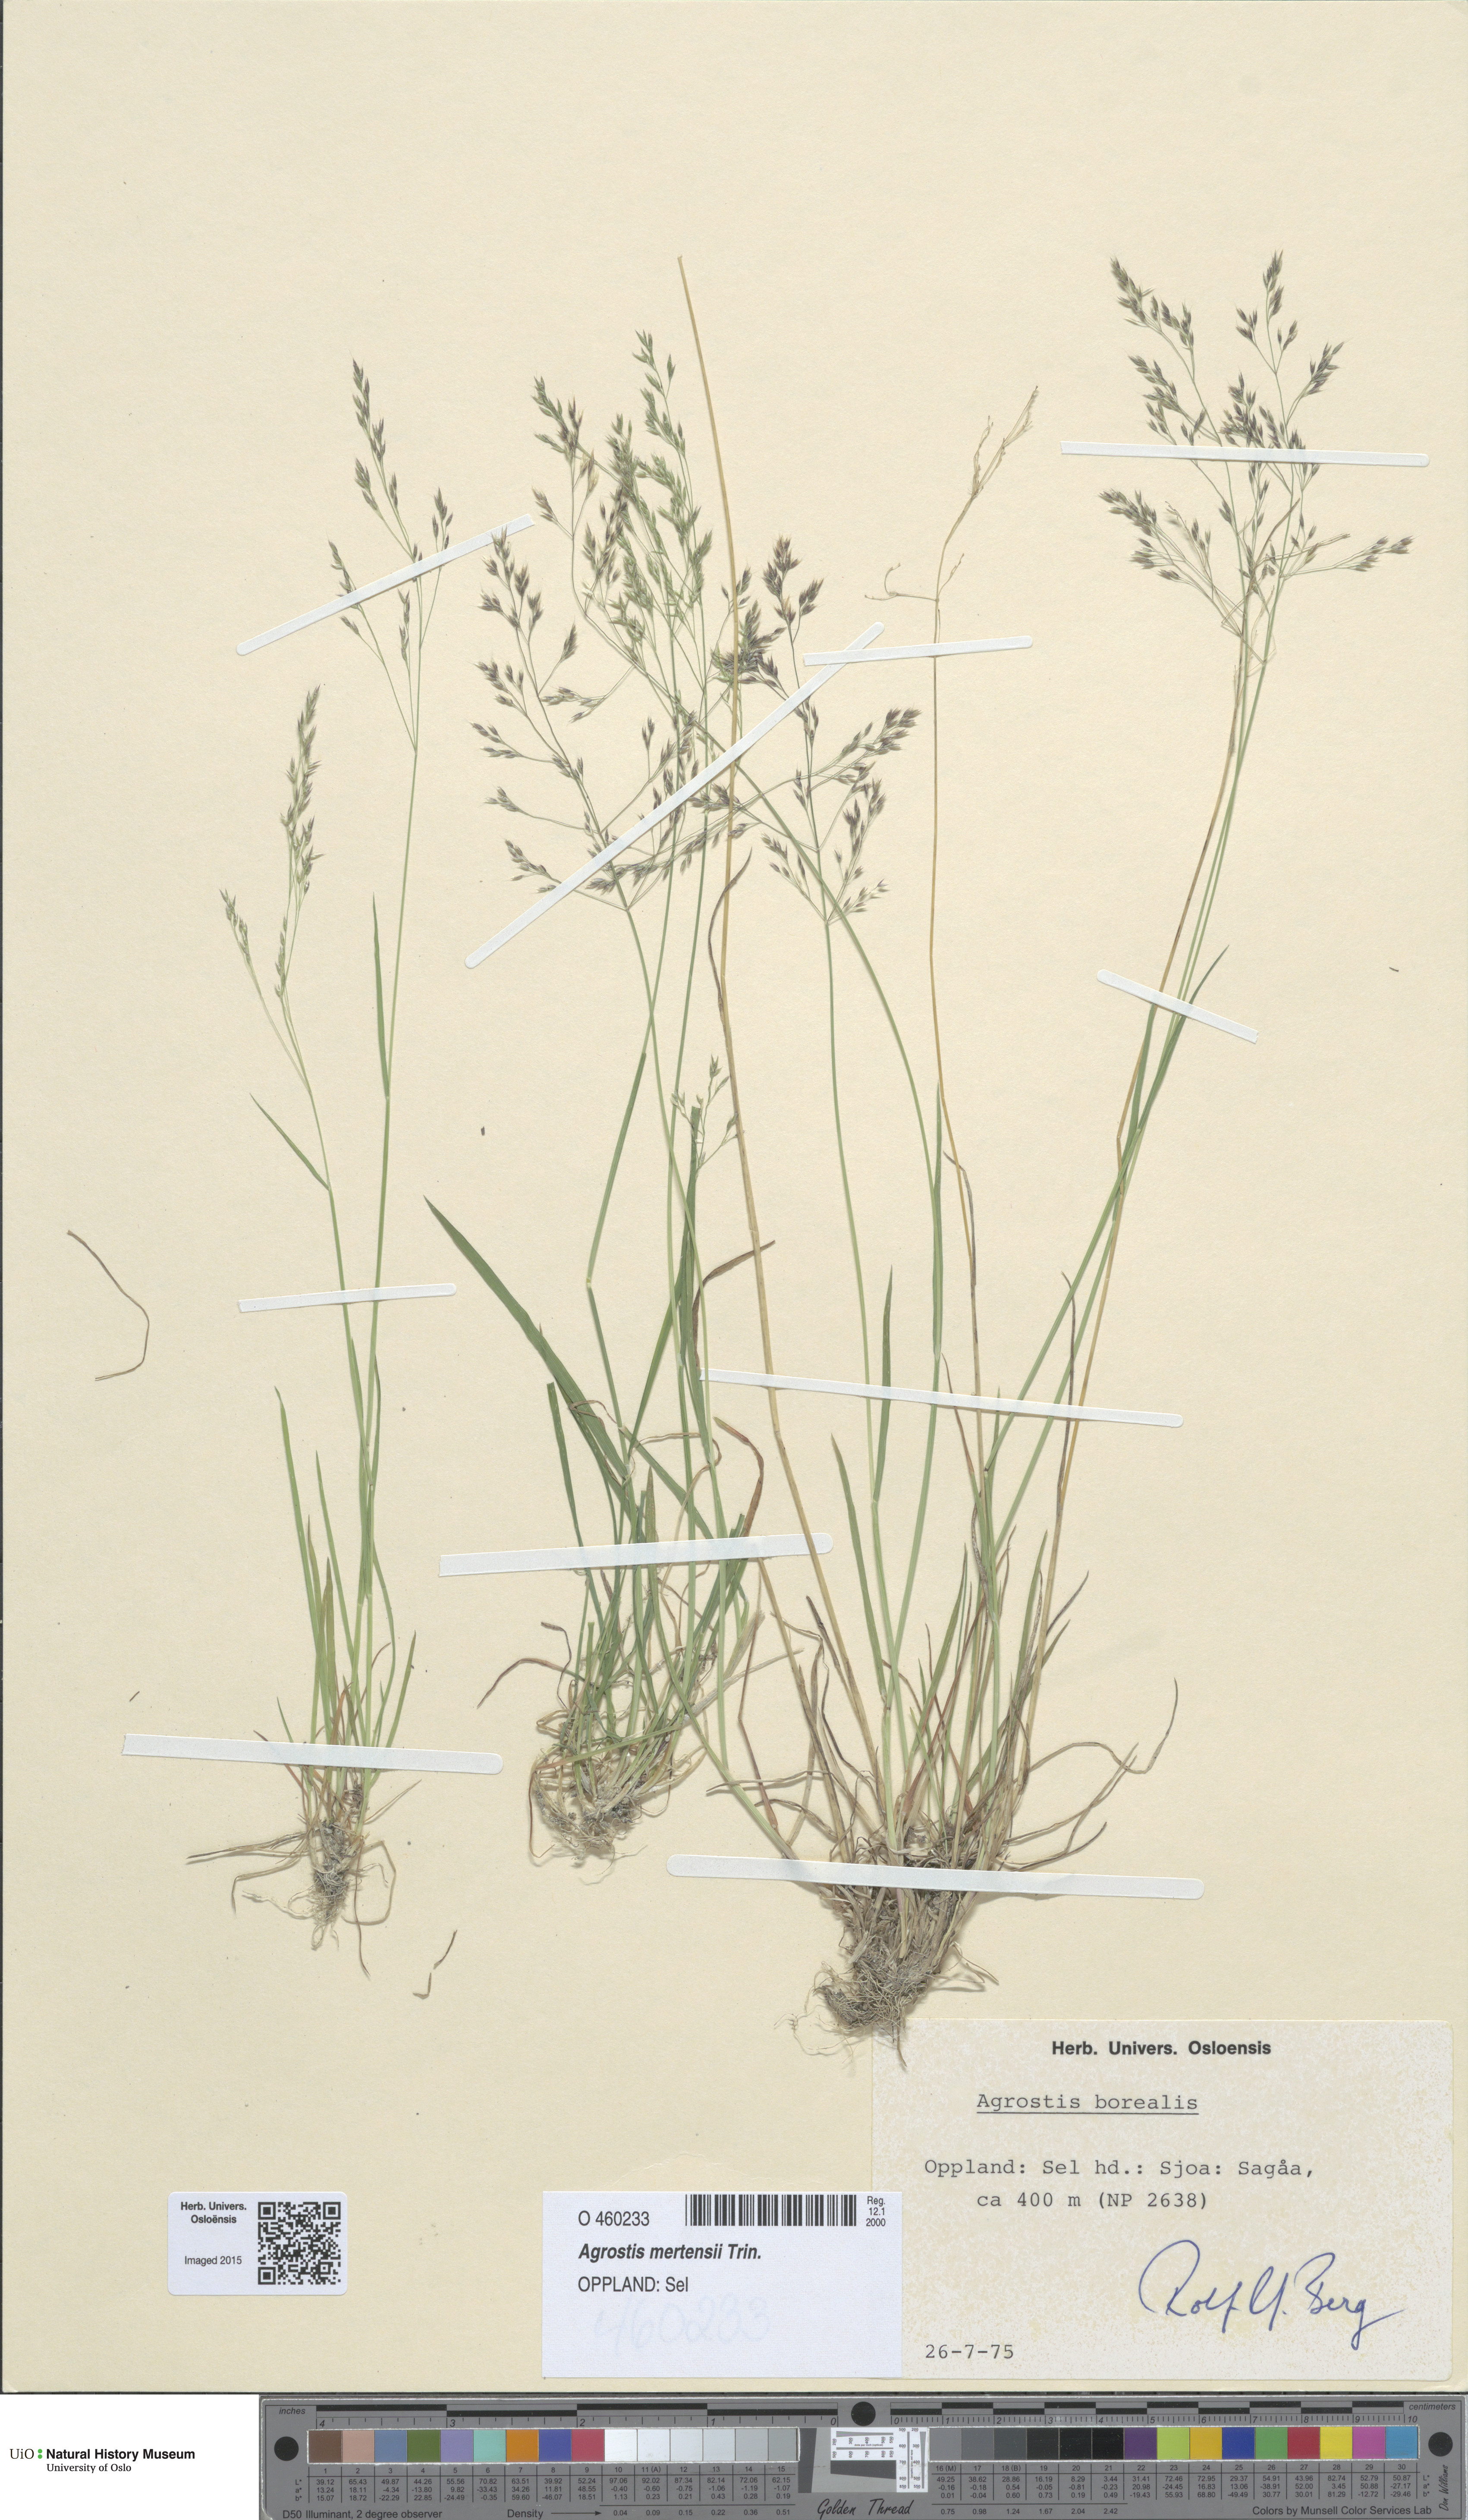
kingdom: Plantae
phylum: Tracheophyta
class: Liliopsida
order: Poales
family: Poaceae
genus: Agrostis
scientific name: Agrostis mertensii
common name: Northern bent
